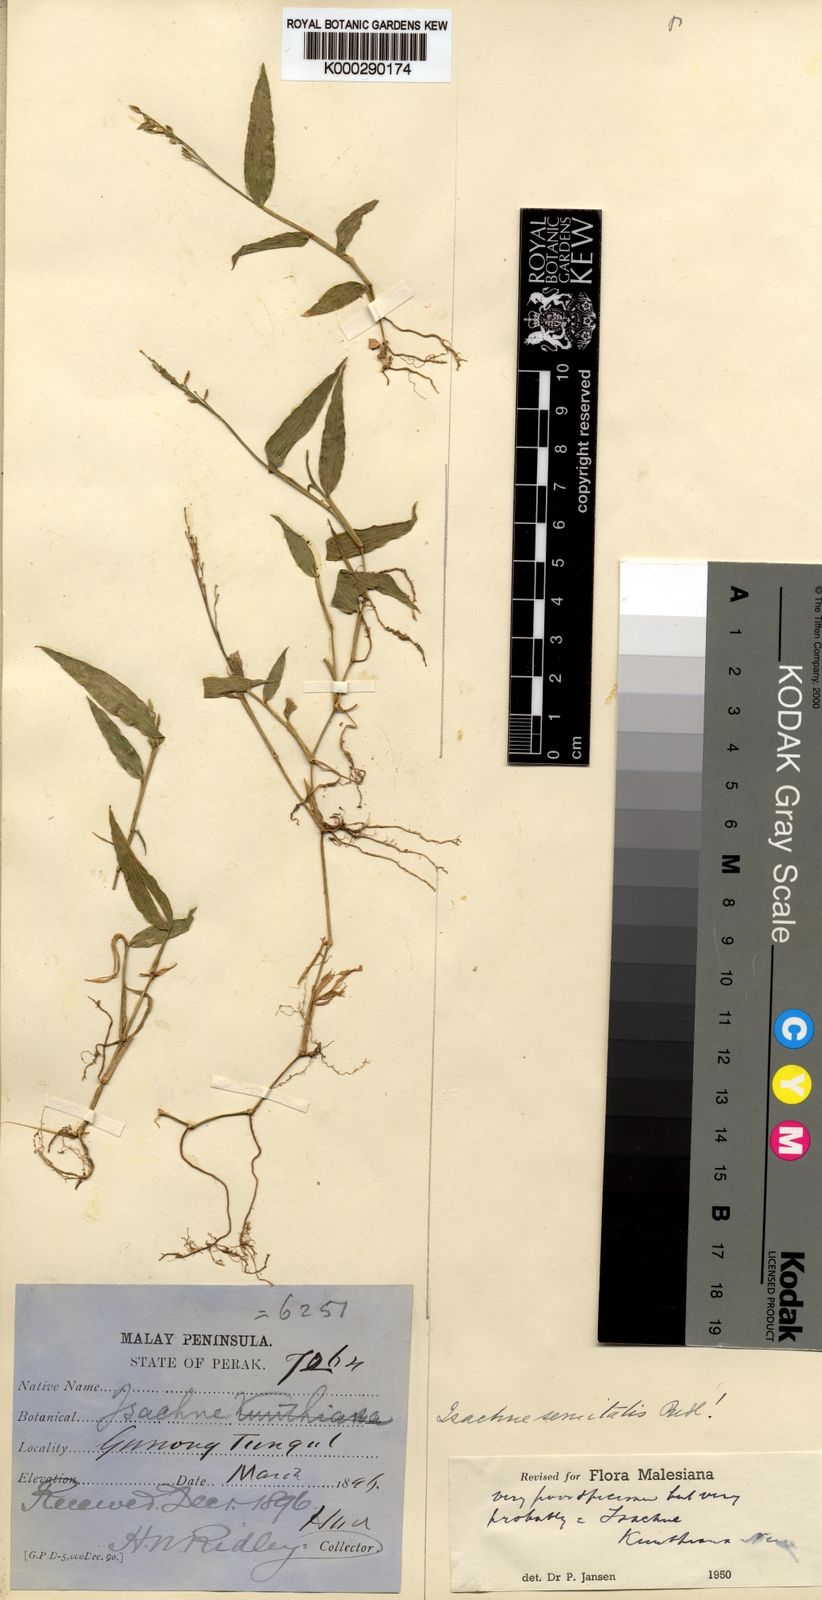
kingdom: Plantae
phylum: Tracheophyta
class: Liliopsida
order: Poales
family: Poaceae
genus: Isachne
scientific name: Isachne kunthiana
